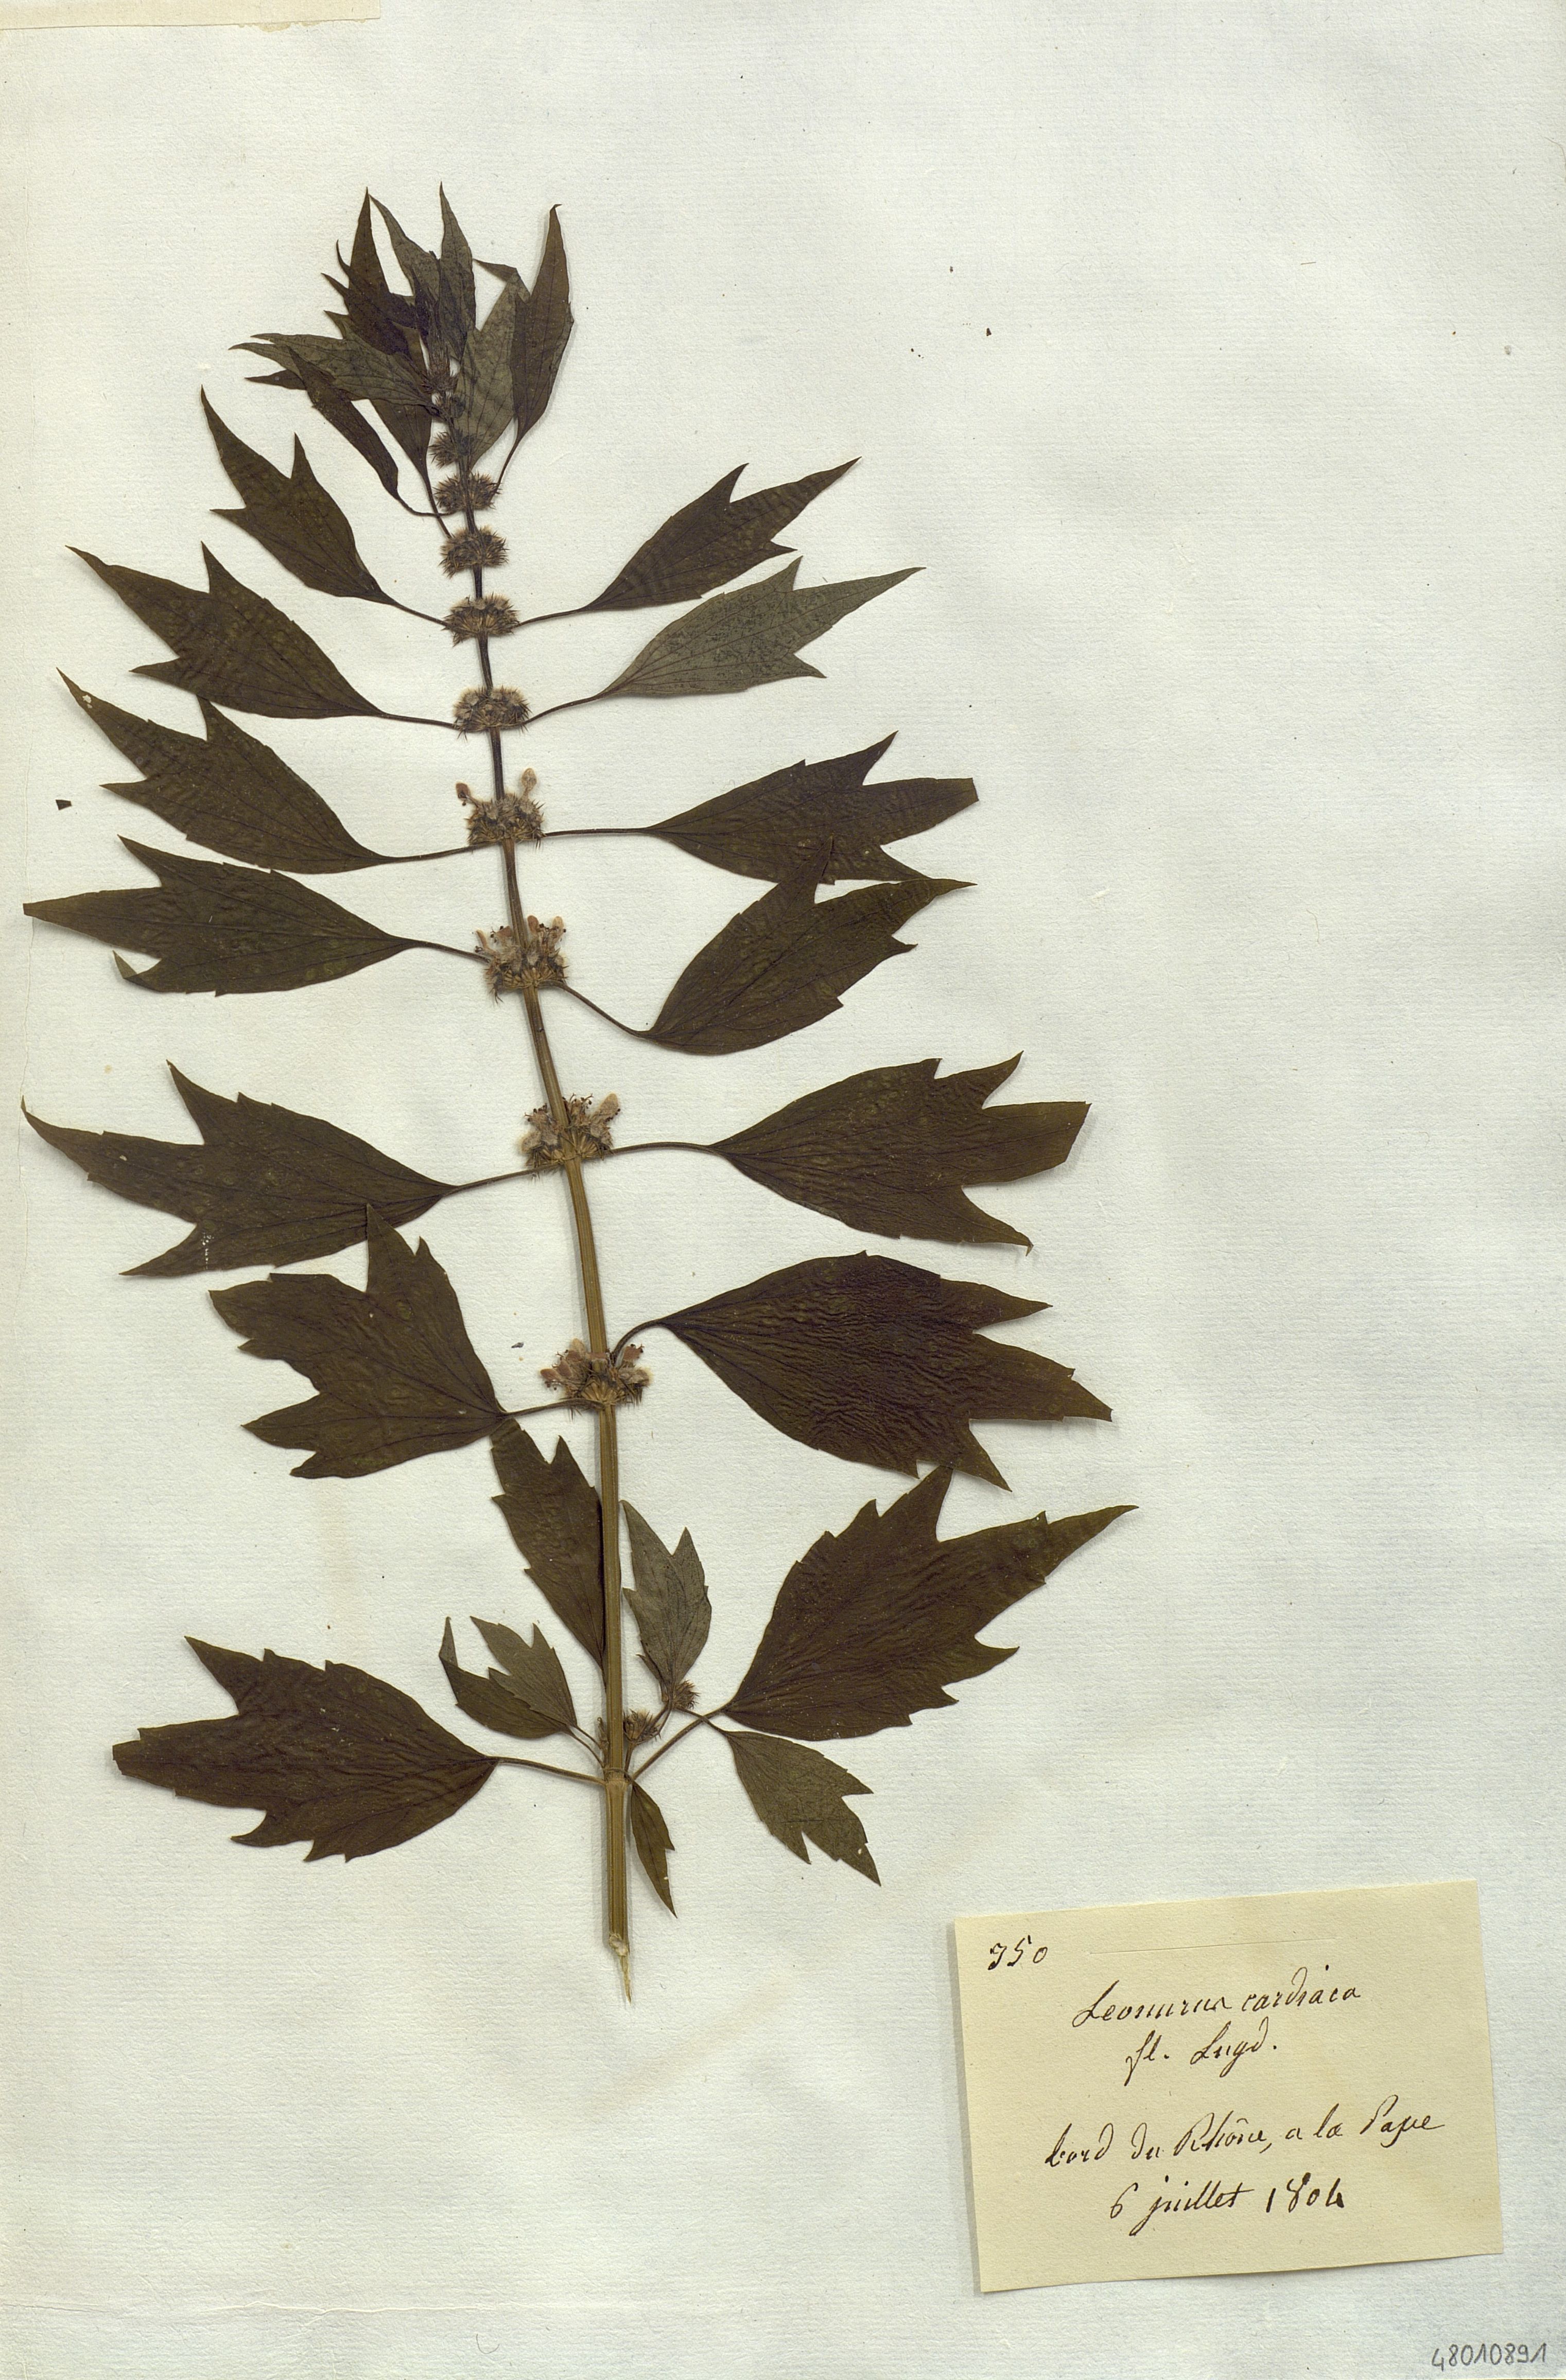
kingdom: Plantae
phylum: Tracheophyta
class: Magnoliopsida
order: Lamiales
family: Lamiaceae
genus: Leonurus
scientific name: Leonurus cardiaca
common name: Motherwort
